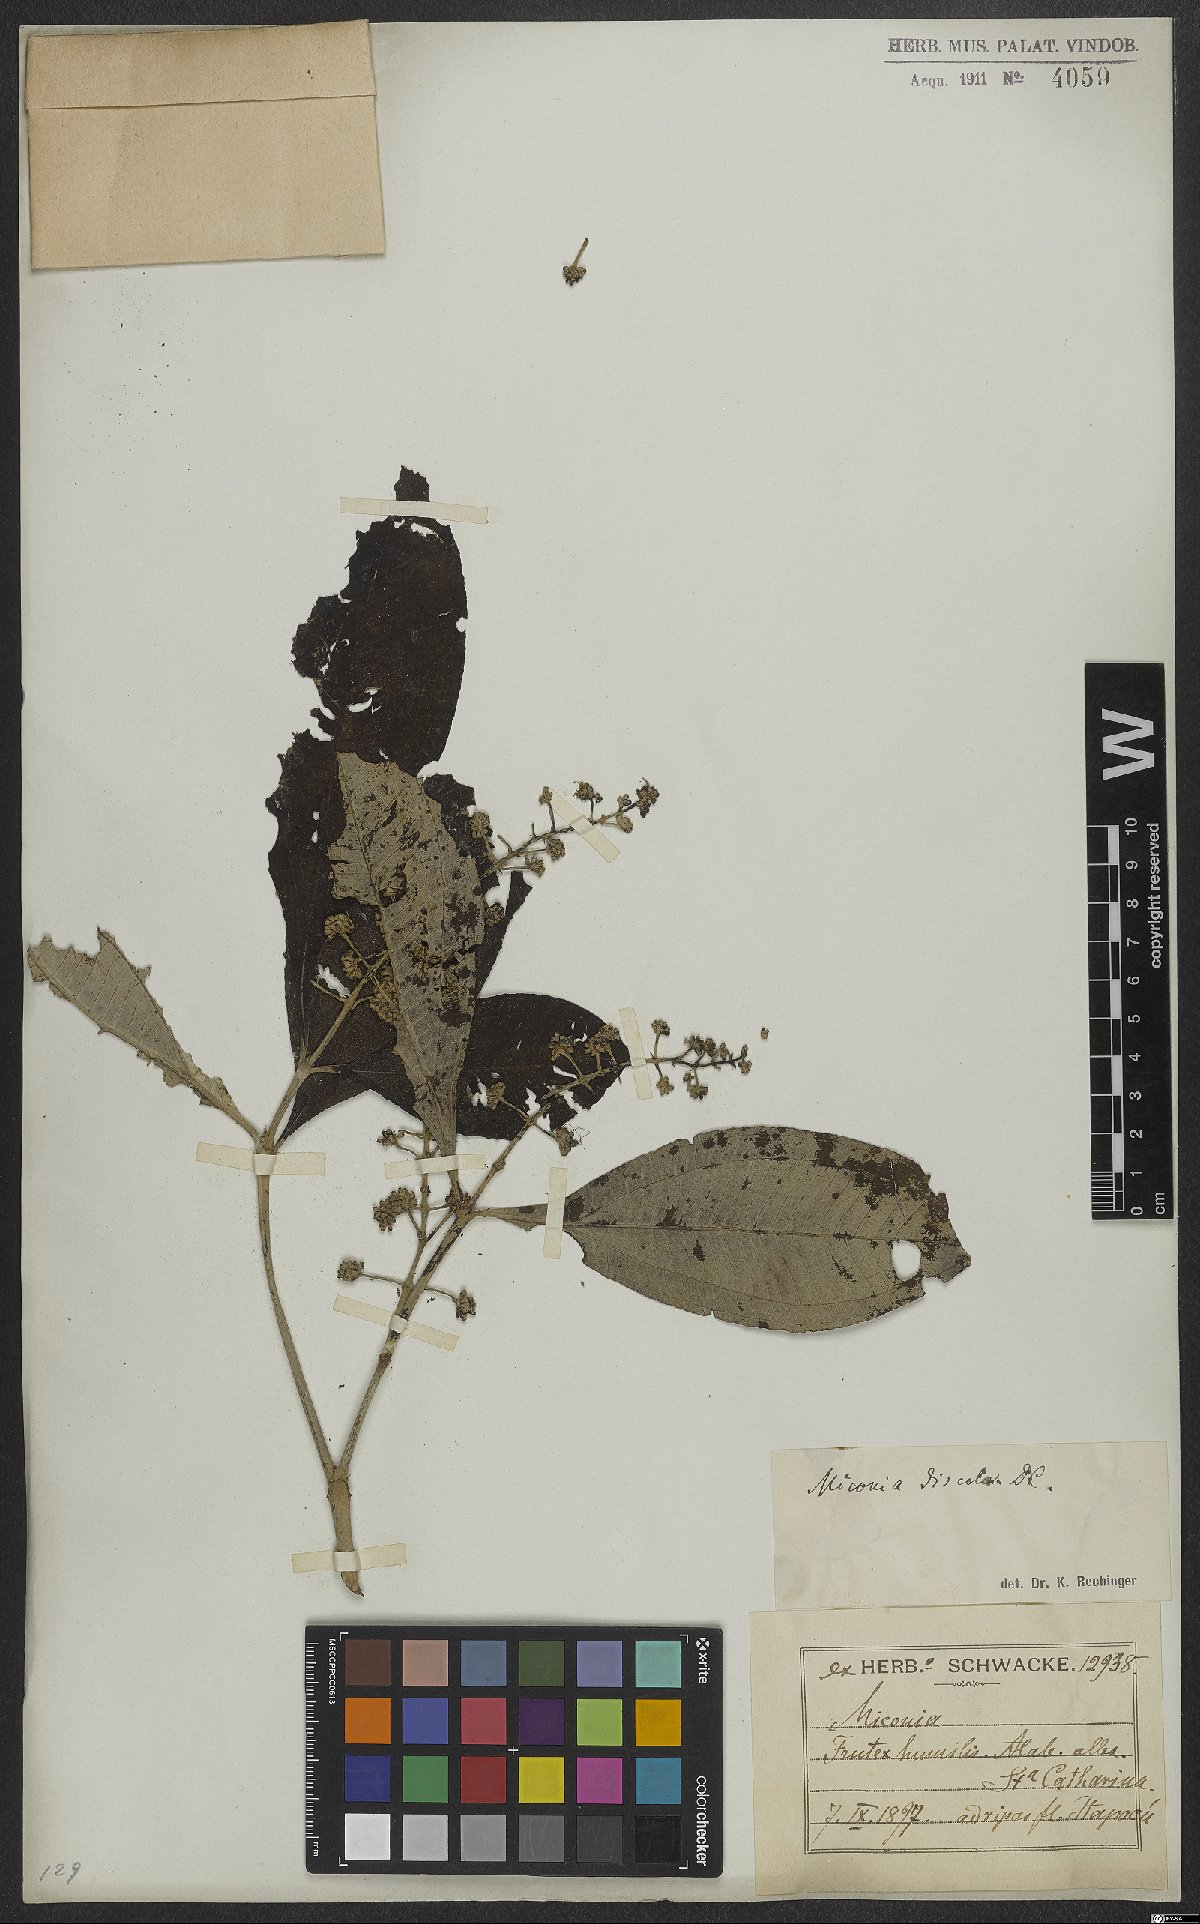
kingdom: Plantae
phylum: Tracheophyta
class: Magnoliopsida
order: Myrtales
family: Melastomataceae
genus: Miconia
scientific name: Miconia discolor
